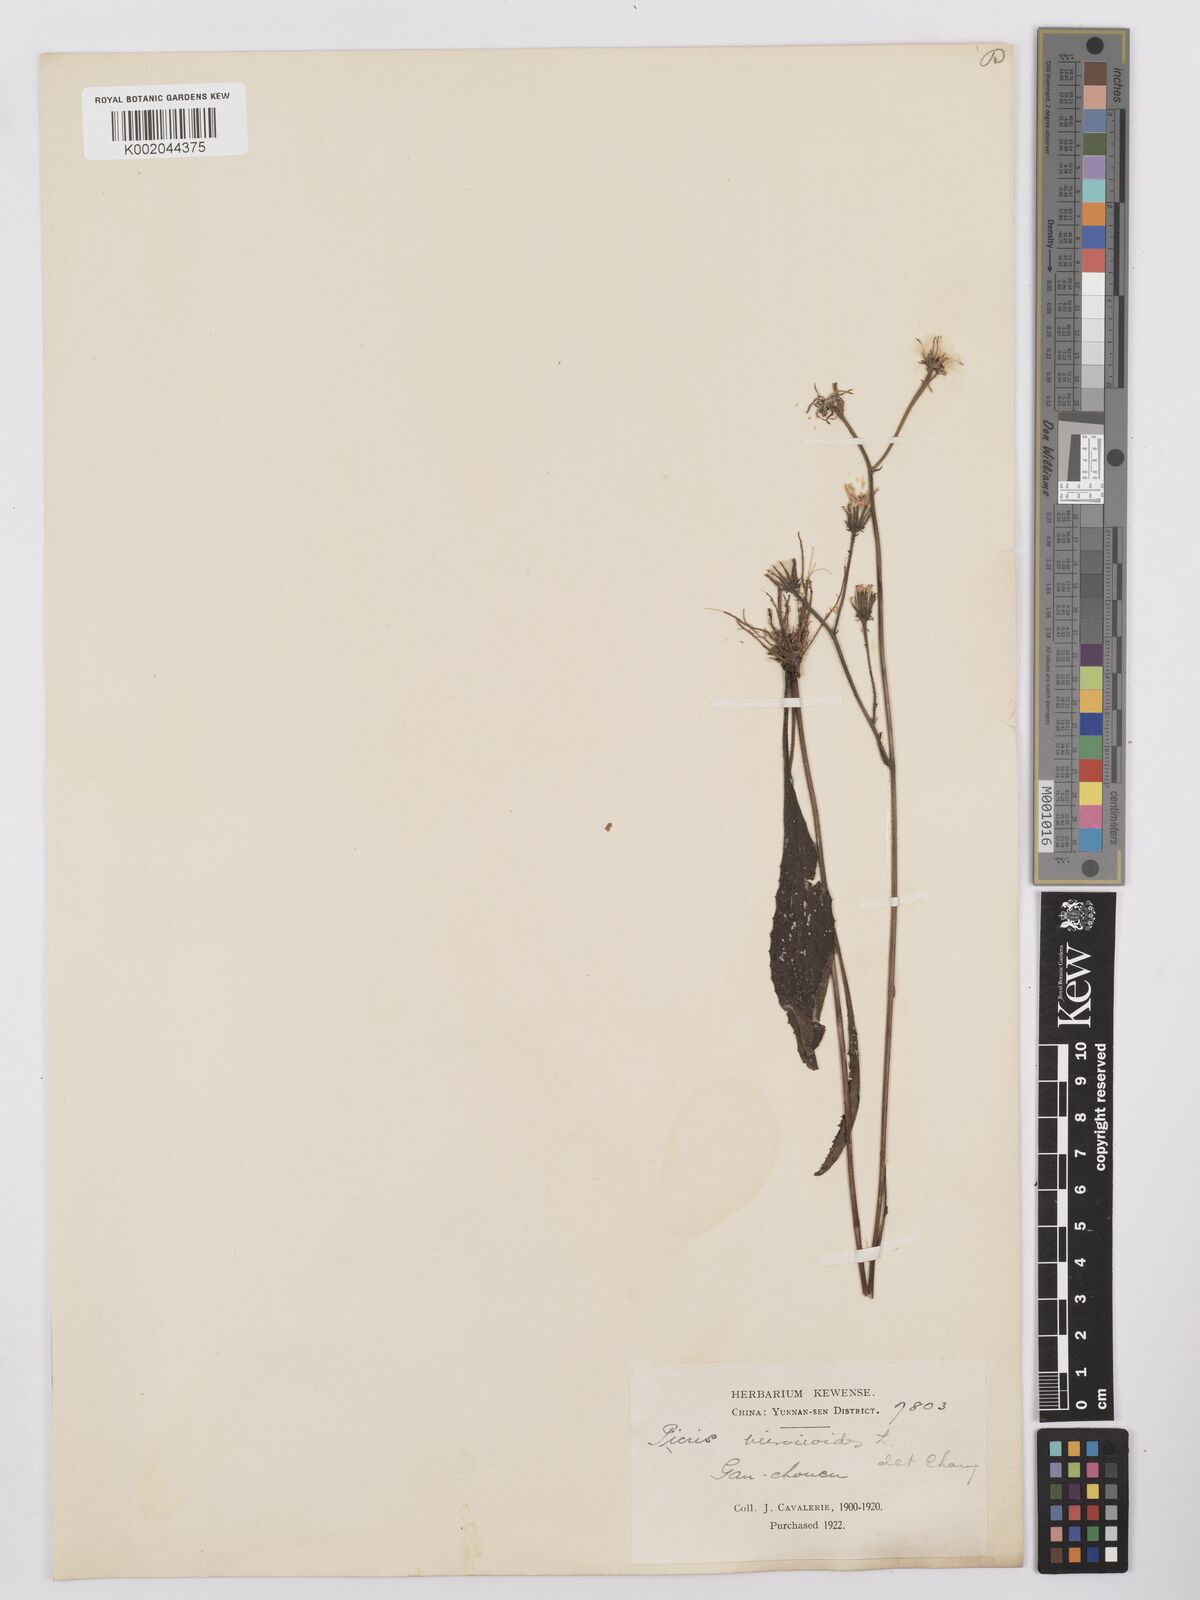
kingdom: Plantae
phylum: Tracheophyta
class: Magnoliopsida
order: Asterales
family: Asteraceae
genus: Picris
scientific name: Picris
